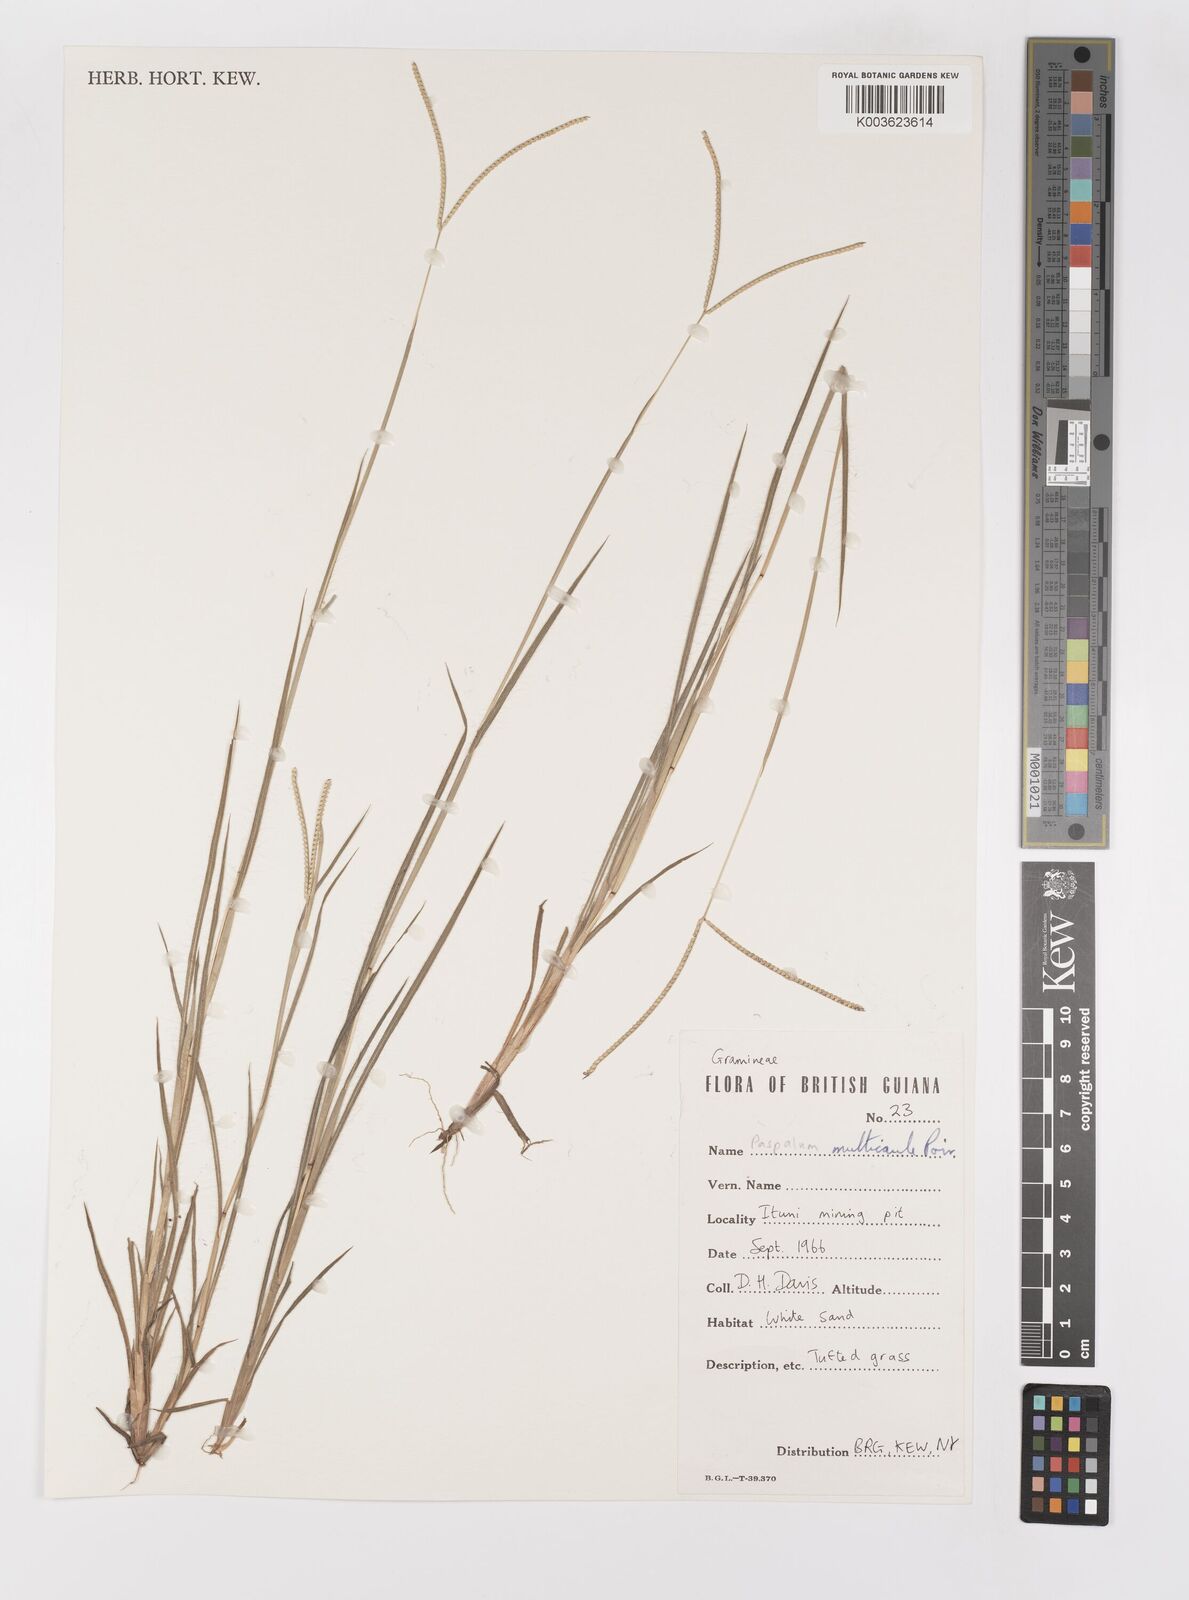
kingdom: Plantae
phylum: Tracheophyta
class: Liliopsida
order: Poales
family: Poaceae
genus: Paspalum
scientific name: Paspalum multicaule
